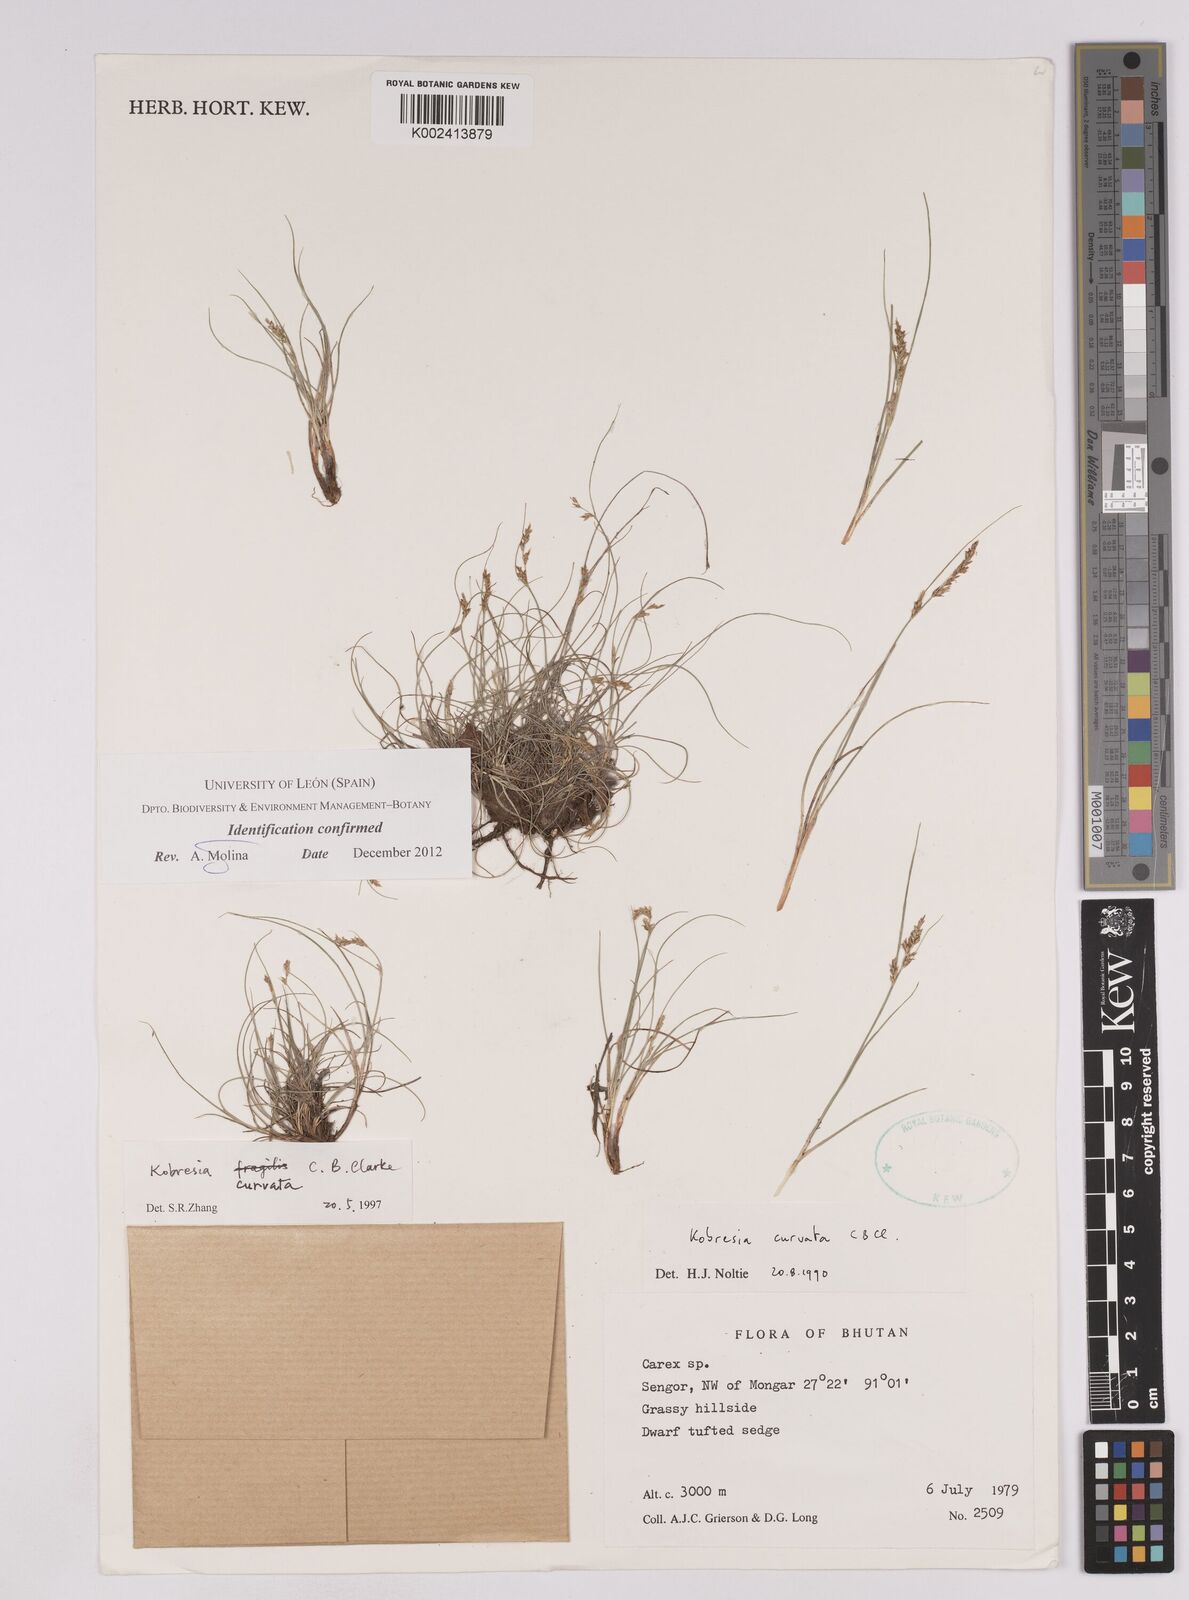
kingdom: Plantae
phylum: Tracheophyta
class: Liliopsida
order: Poales
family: Cyperaceae
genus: Carex
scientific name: Carex bonatiana
